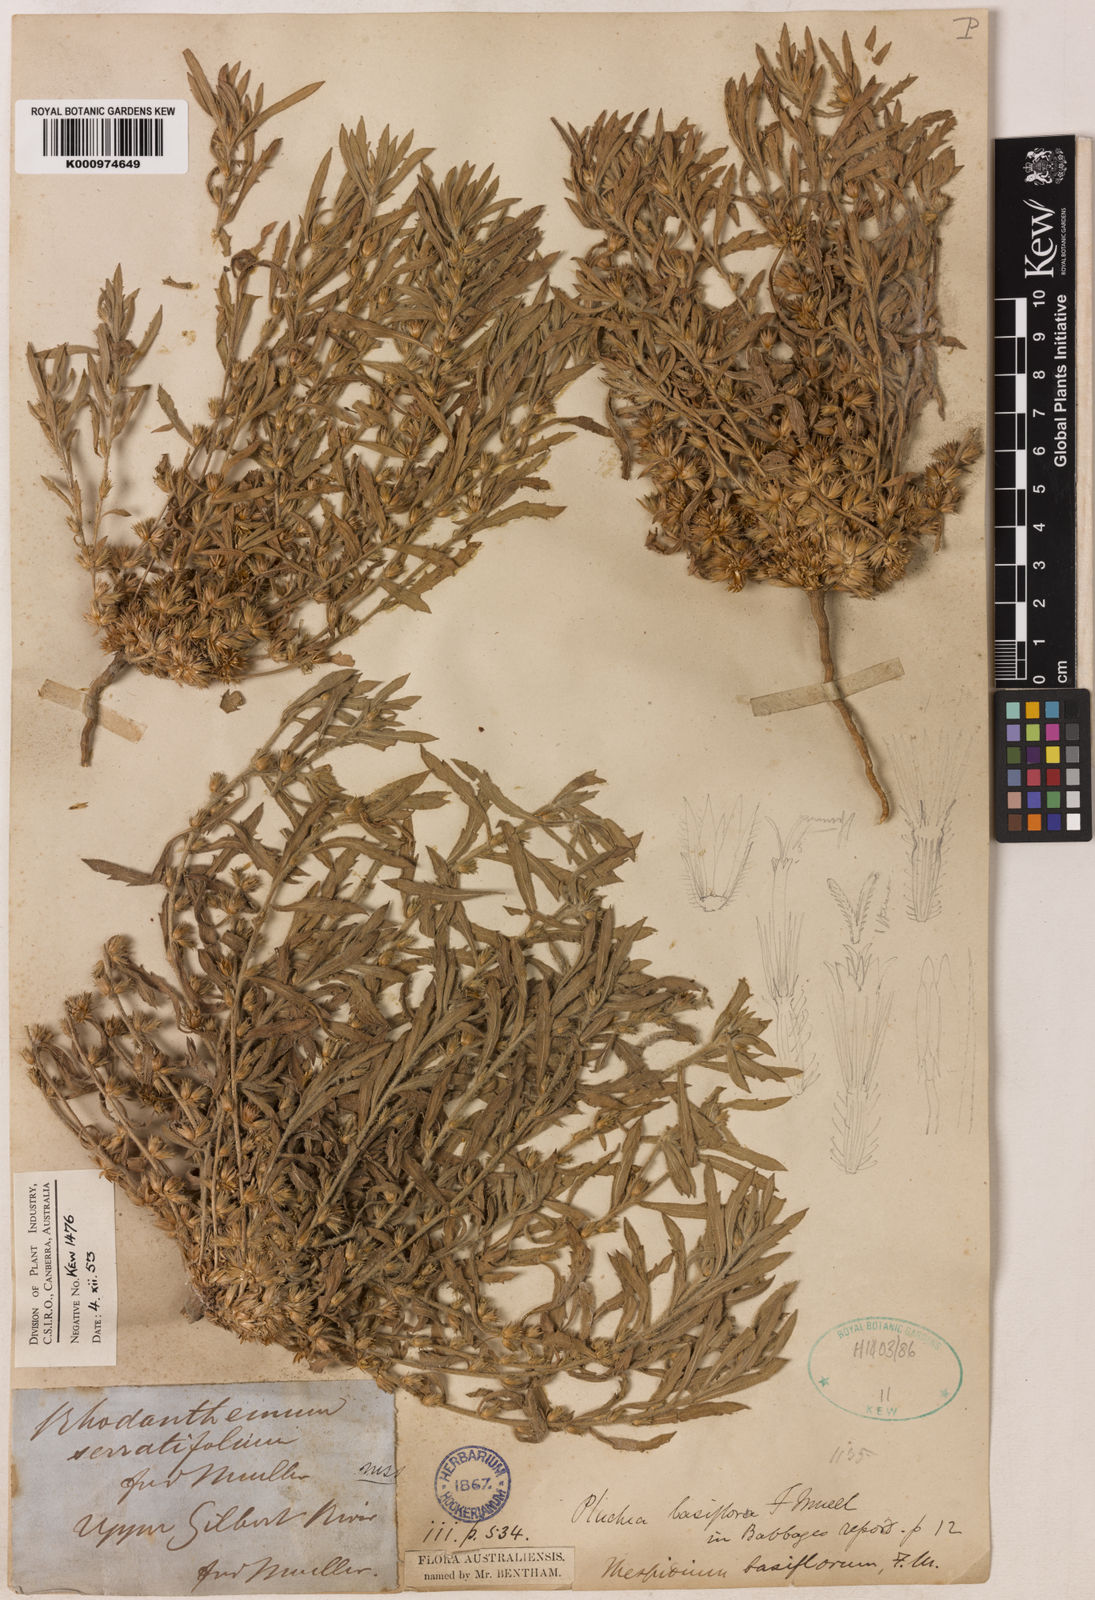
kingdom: Plantae
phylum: Tracheophyta
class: Magnoliopsida
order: Asterales
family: Asteraceae
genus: Thespidium
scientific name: Thespidium basiflorum
